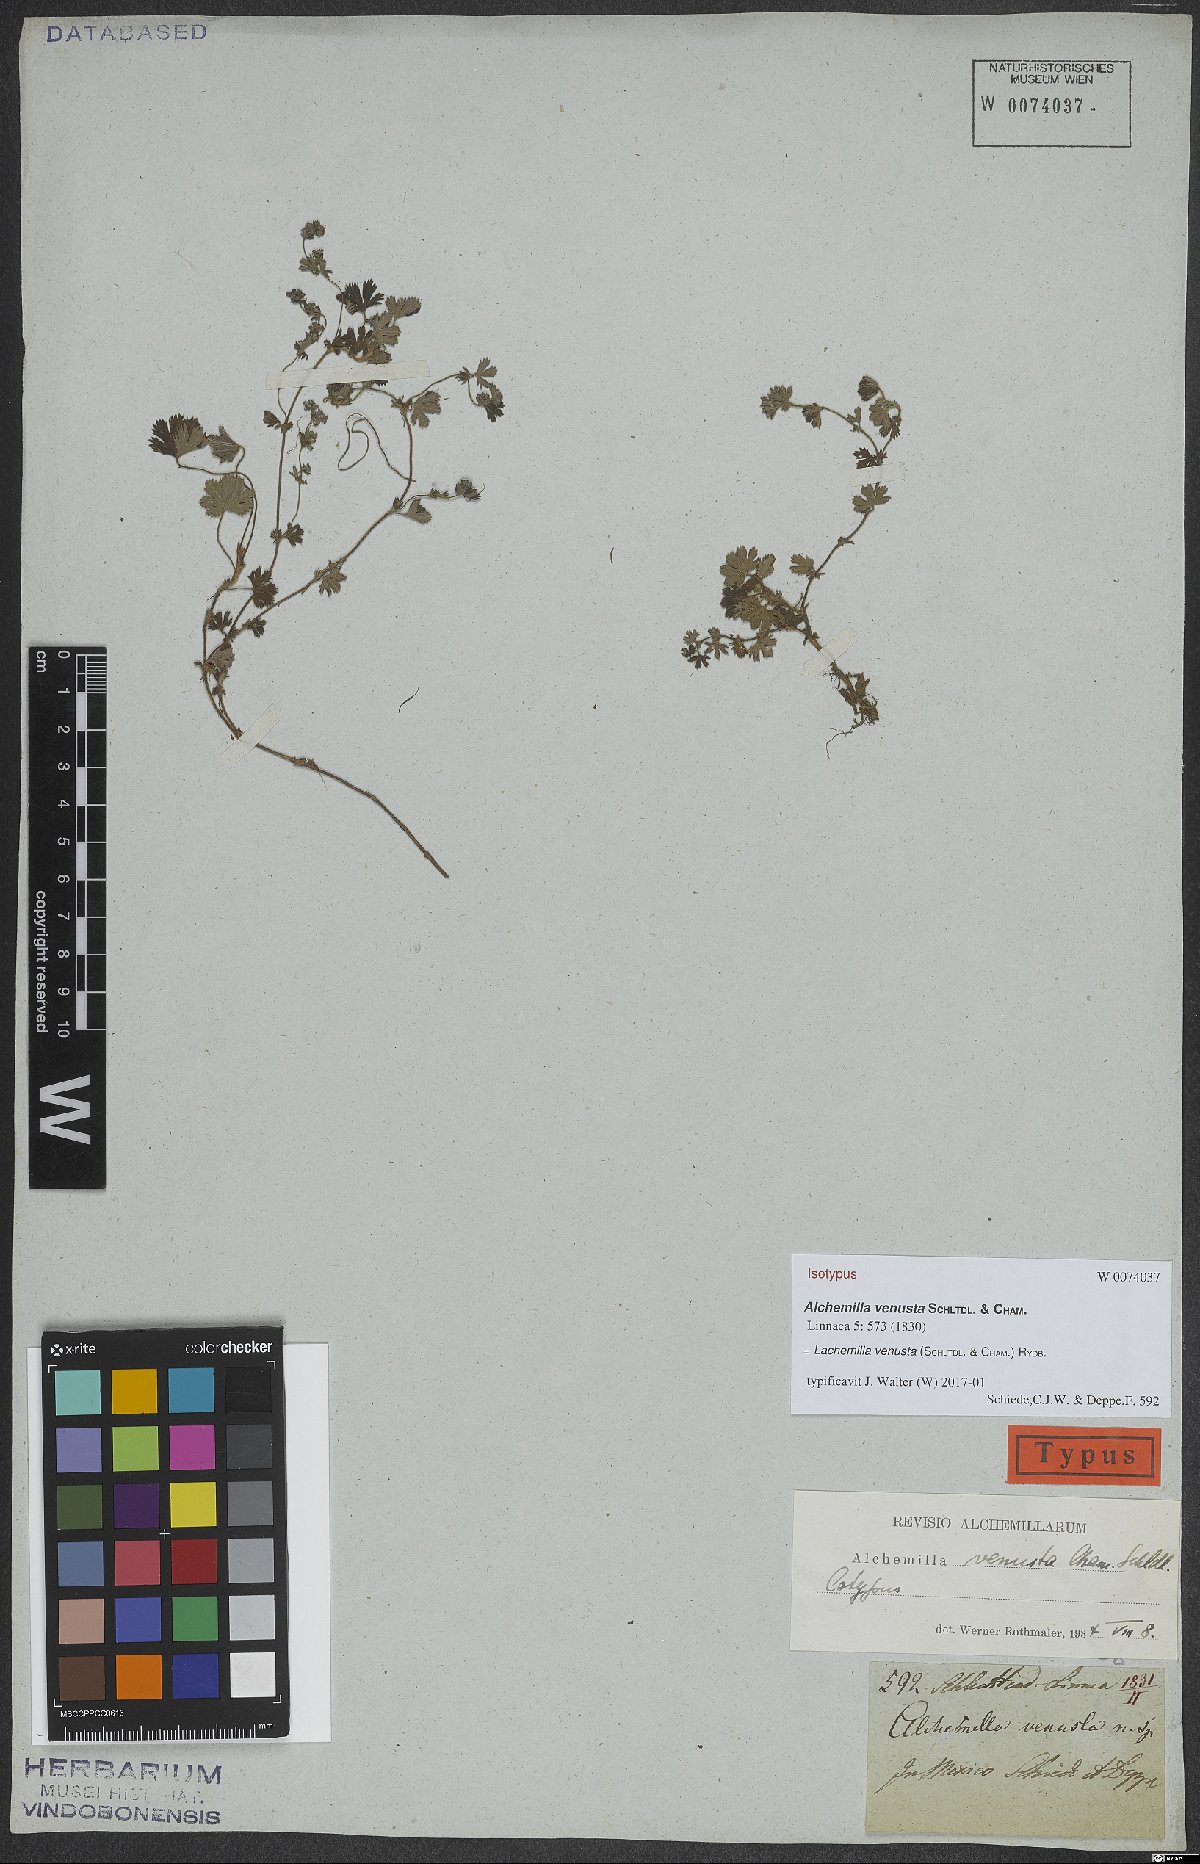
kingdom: Plantae
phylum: Tracheophyta
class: Magnoliopsida
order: Rosales
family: Rosaceae
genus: Lachemilla
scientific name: Lachemilla venusta
